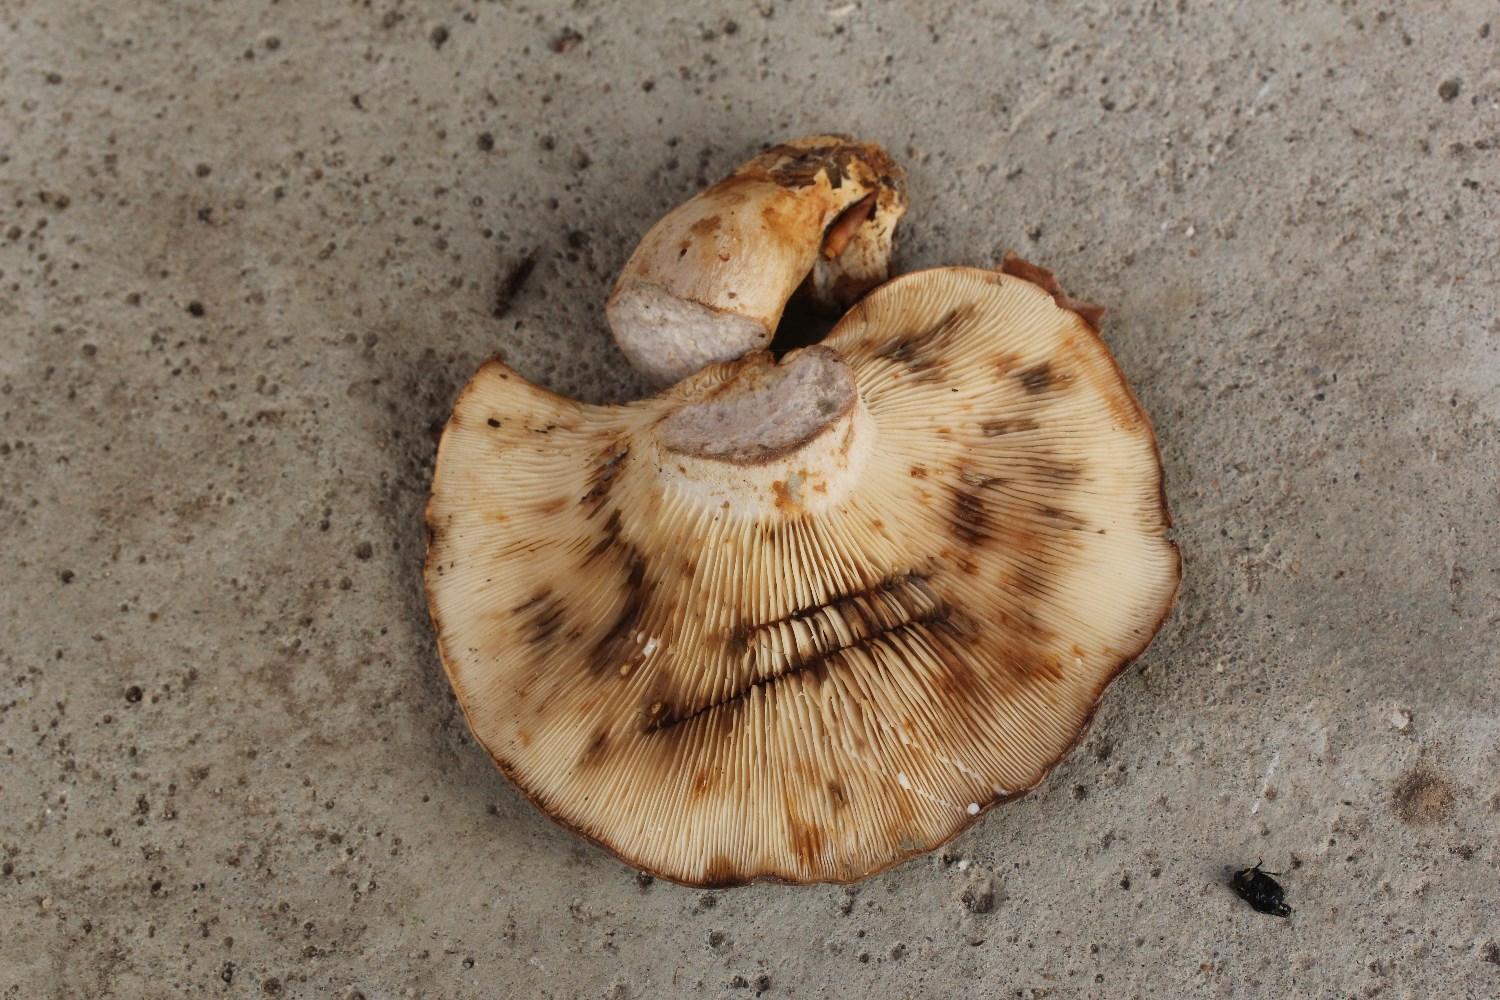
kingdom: Fungi
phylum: Basidiomycota
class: Agaricomycetes
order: Russulales
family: Russulaceae
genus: Lactarius
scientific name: Lactarius fluens
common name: lysrandet mælkehat
